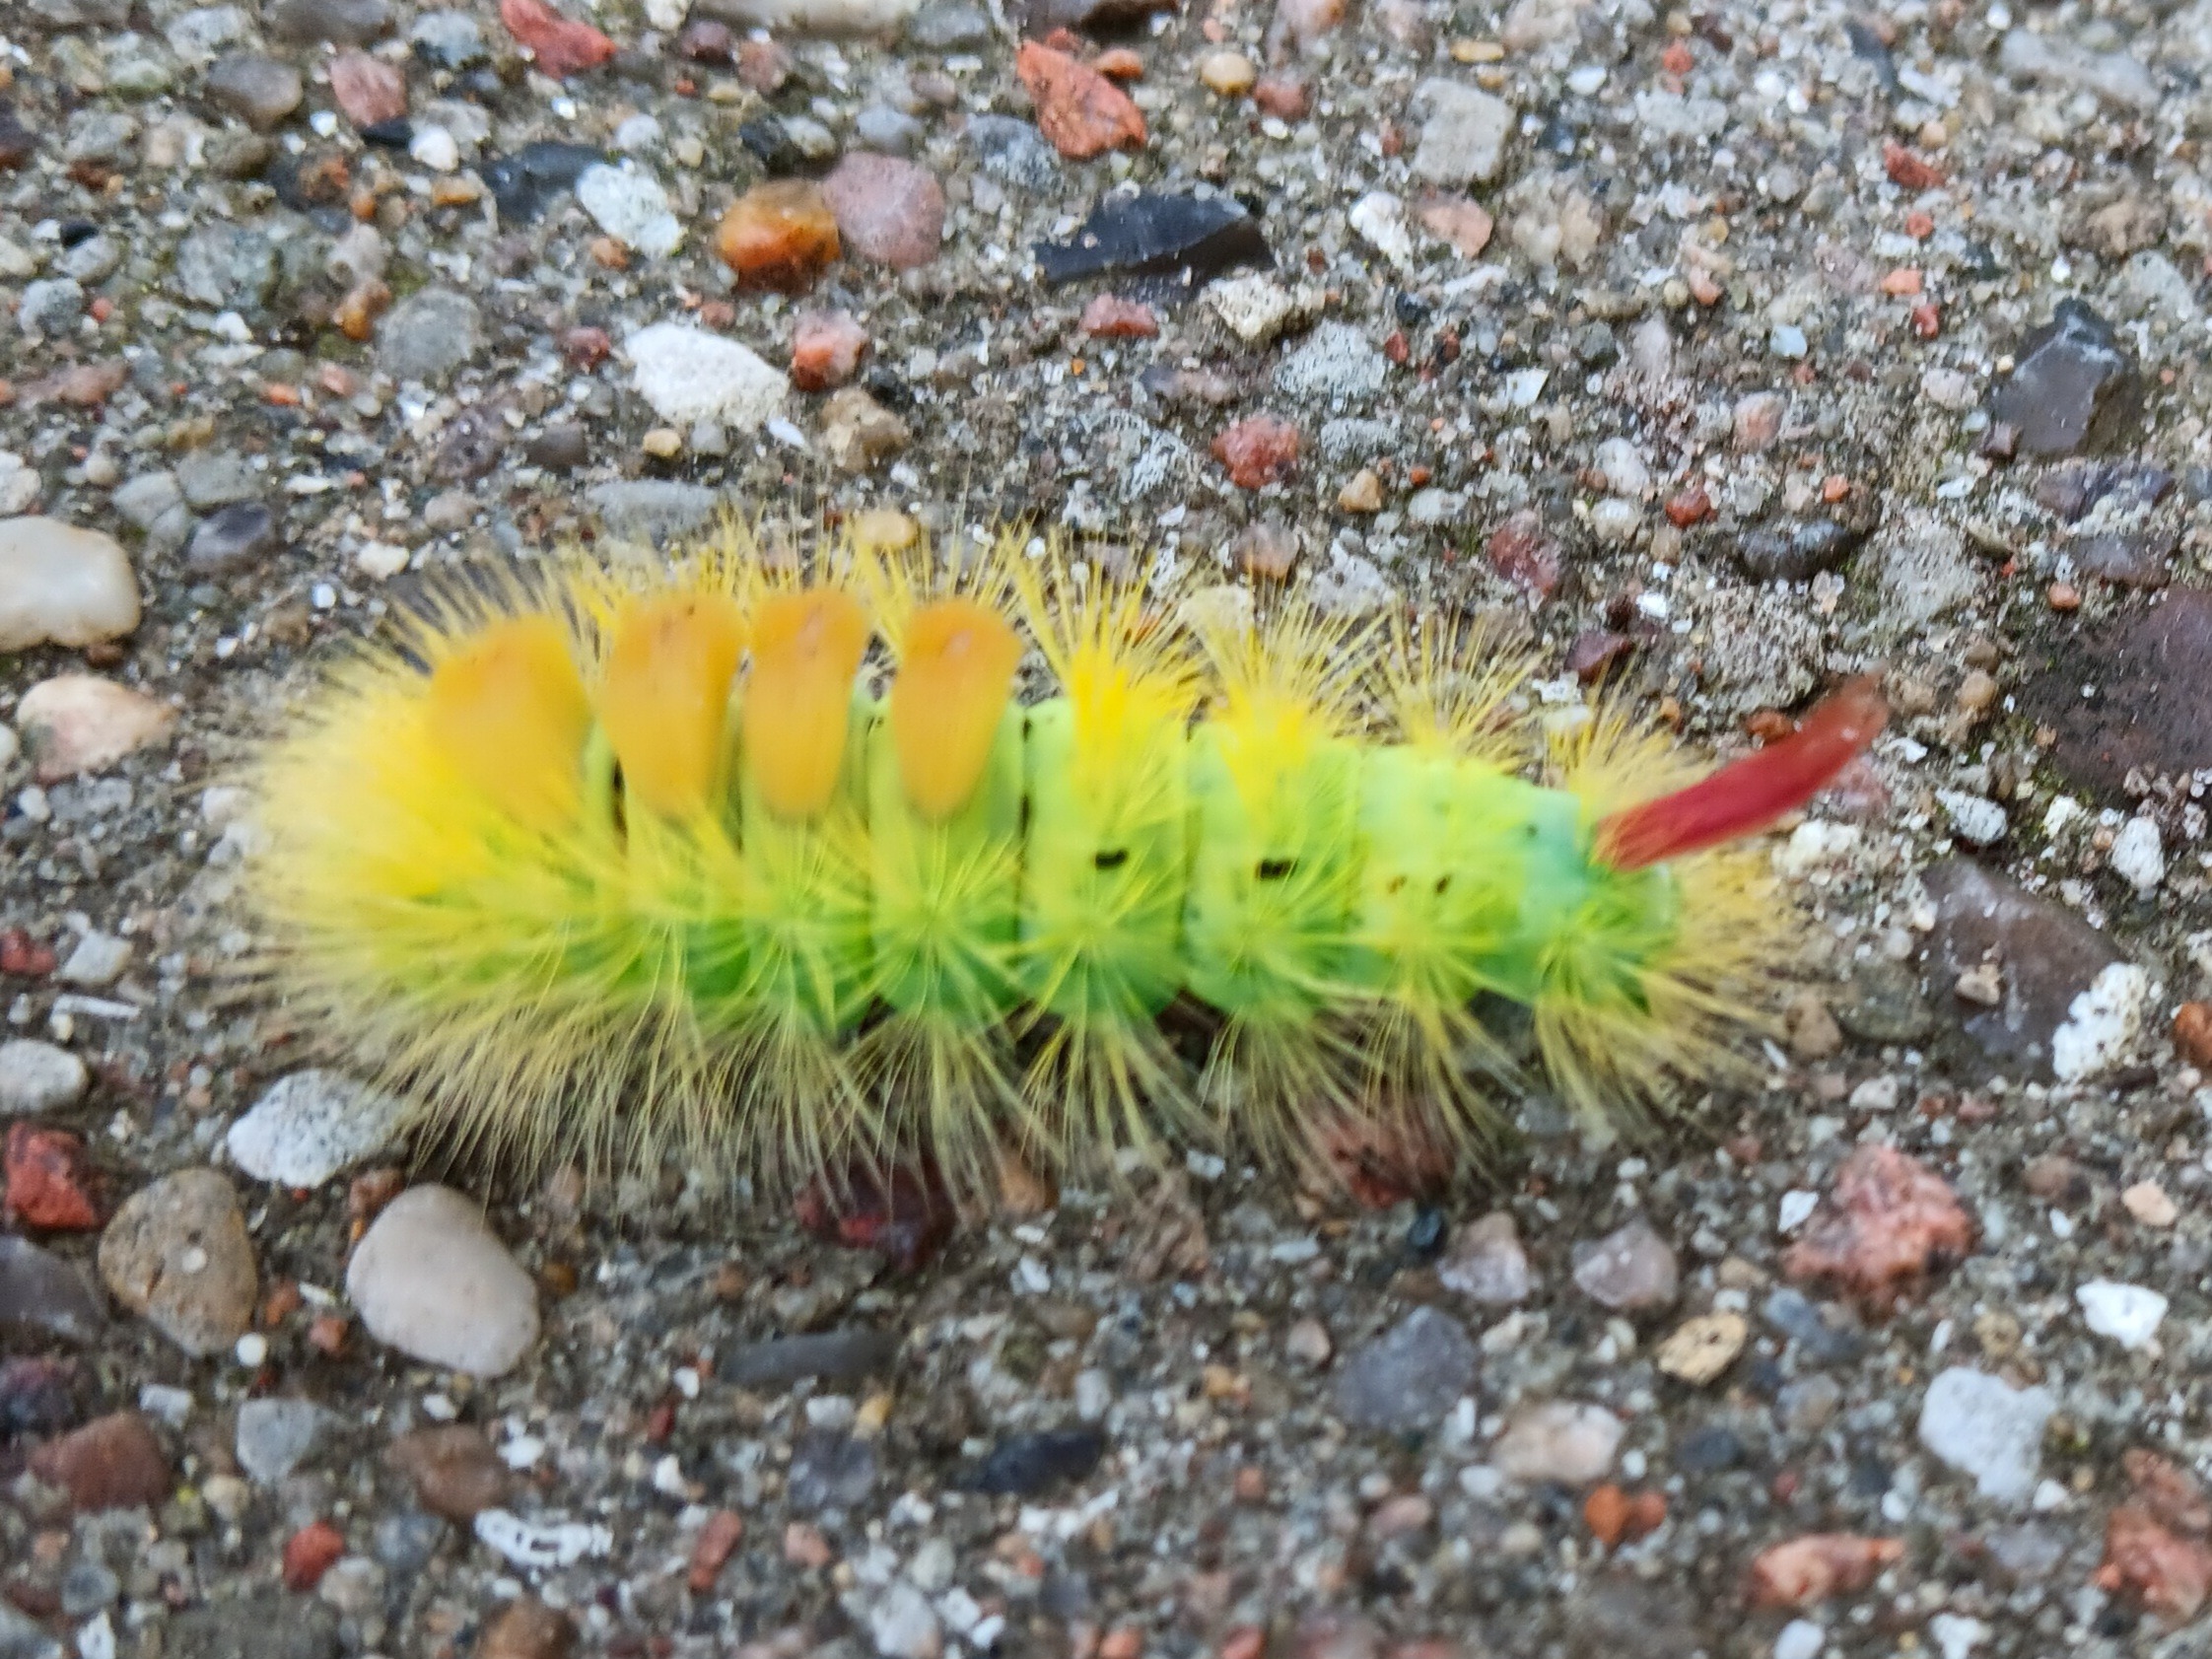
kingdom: Animalia
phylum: Arthropoda
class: Insecta
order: Lepidoptera
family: Erebidae
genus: Calliteara
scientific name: Calliteara pudibunda
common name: Bøgenonne
